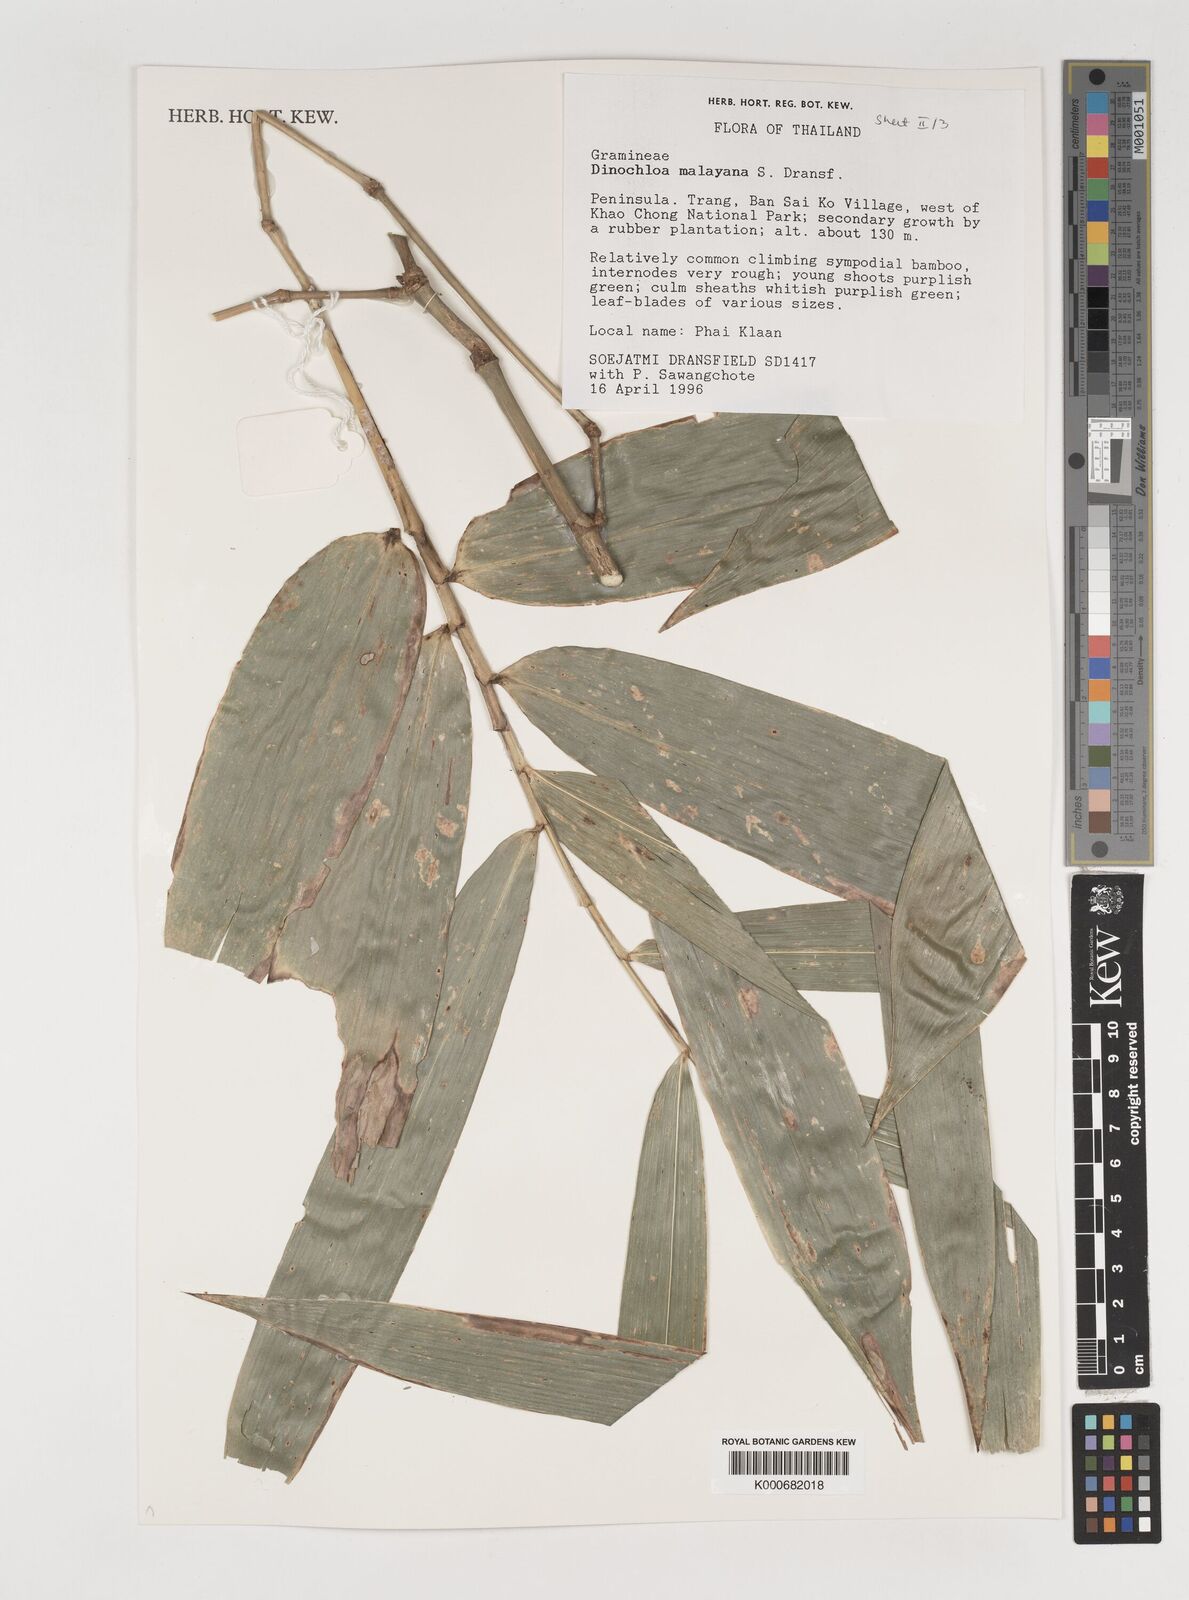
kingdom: Plantae
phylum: Tracheophyta
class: Liliopsida
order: Poales
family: Poaceae
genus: Dinochloa
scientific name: Dinochloa malayana
